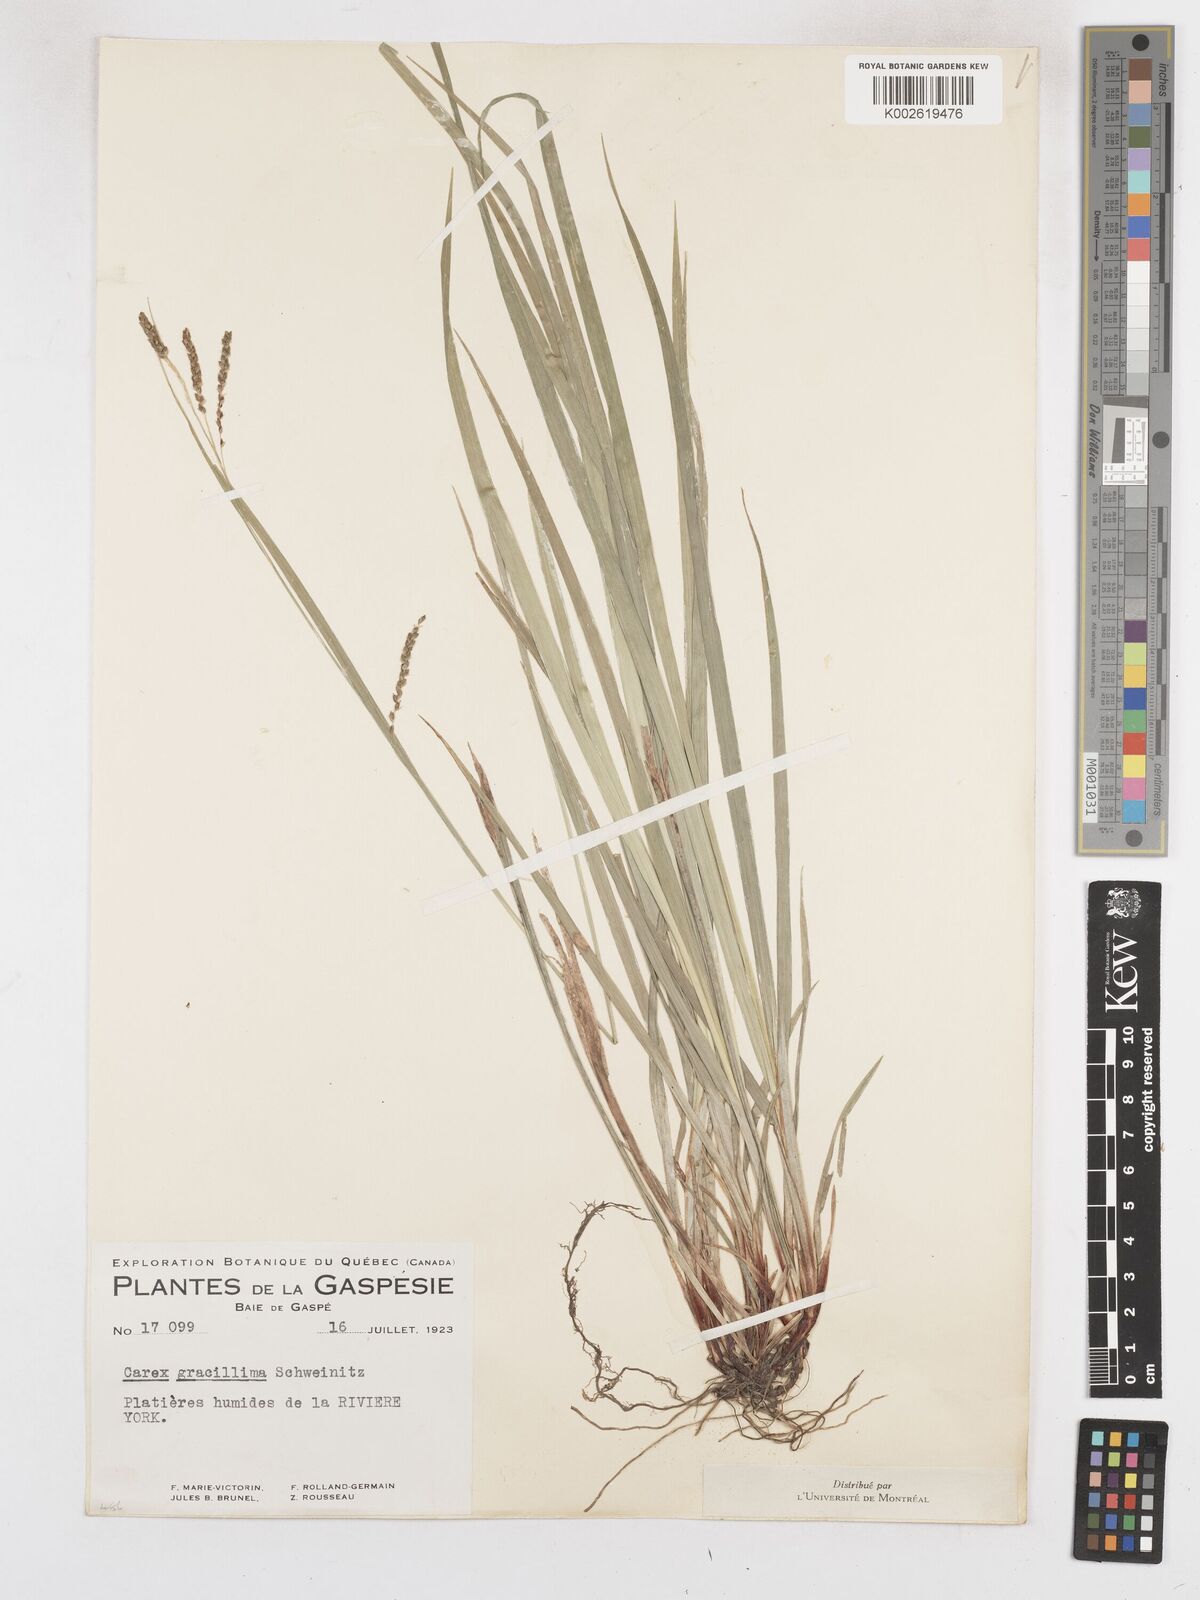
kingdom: Plantae
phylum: Tracheophyta
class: Liliopsida
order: Poales
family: Cyperaceae
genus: Carex
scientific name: Carex gracillima
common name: Graceful sedge
